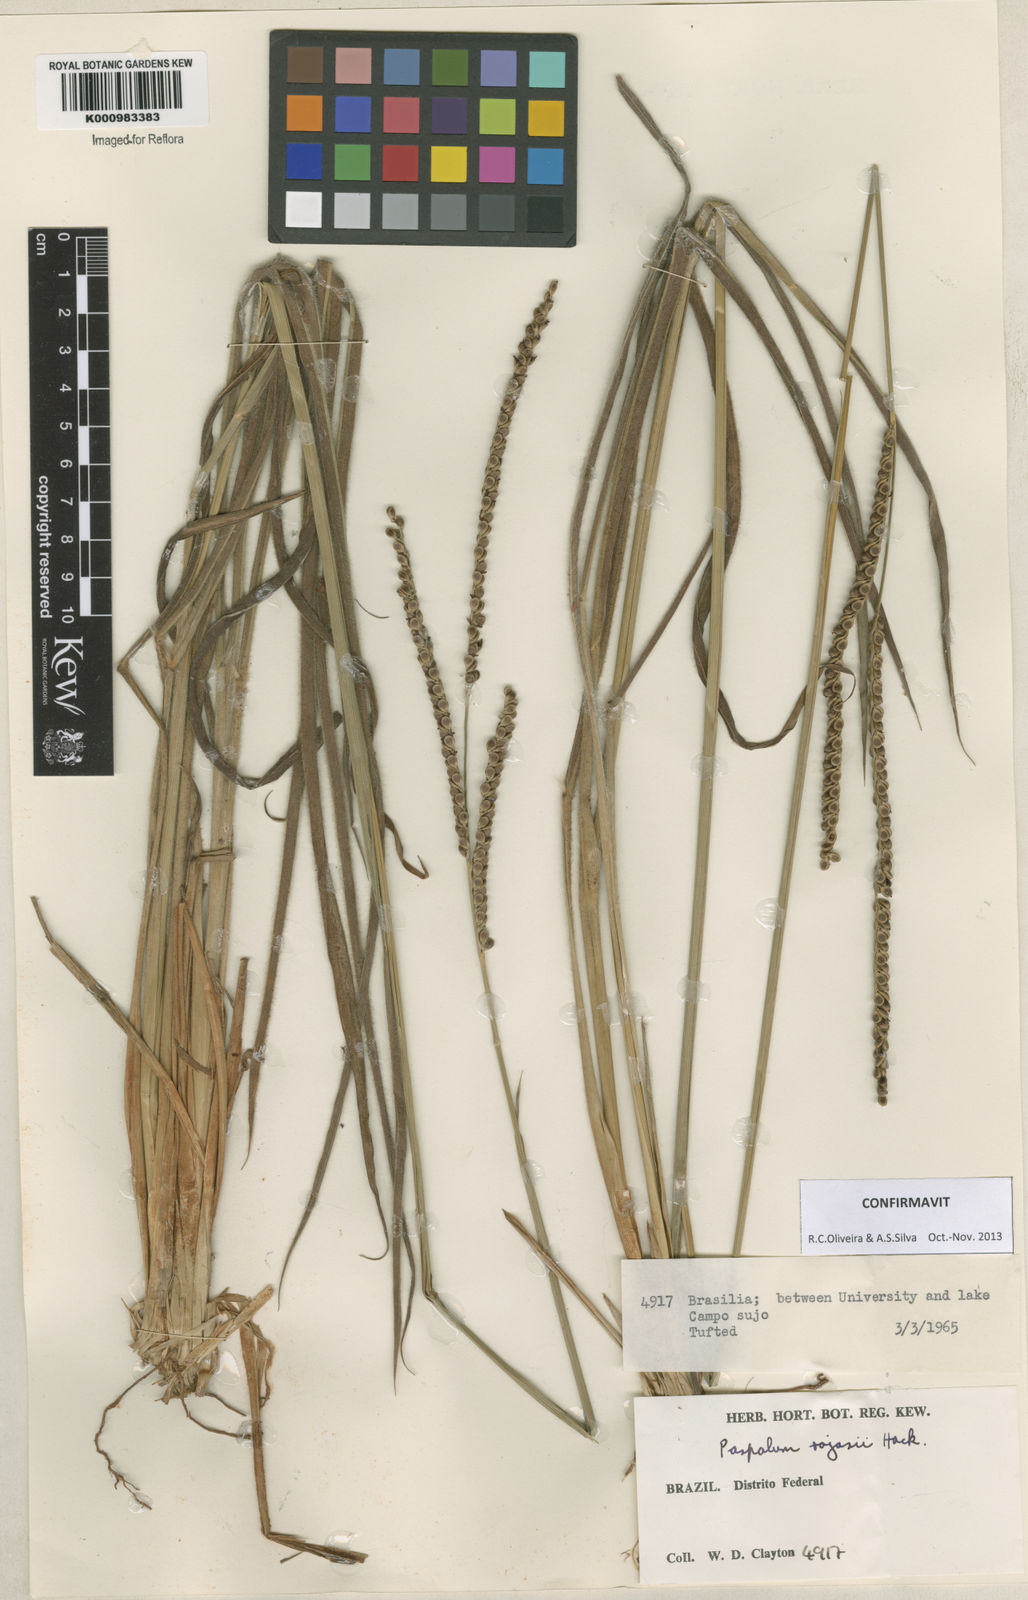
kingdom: Plantae
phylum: Tracheophyta
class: Liliopsida
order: Poales
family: Poaceae
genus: Paspalum
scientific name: Paspalum guenoarum
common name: Wintergreen paspalum
